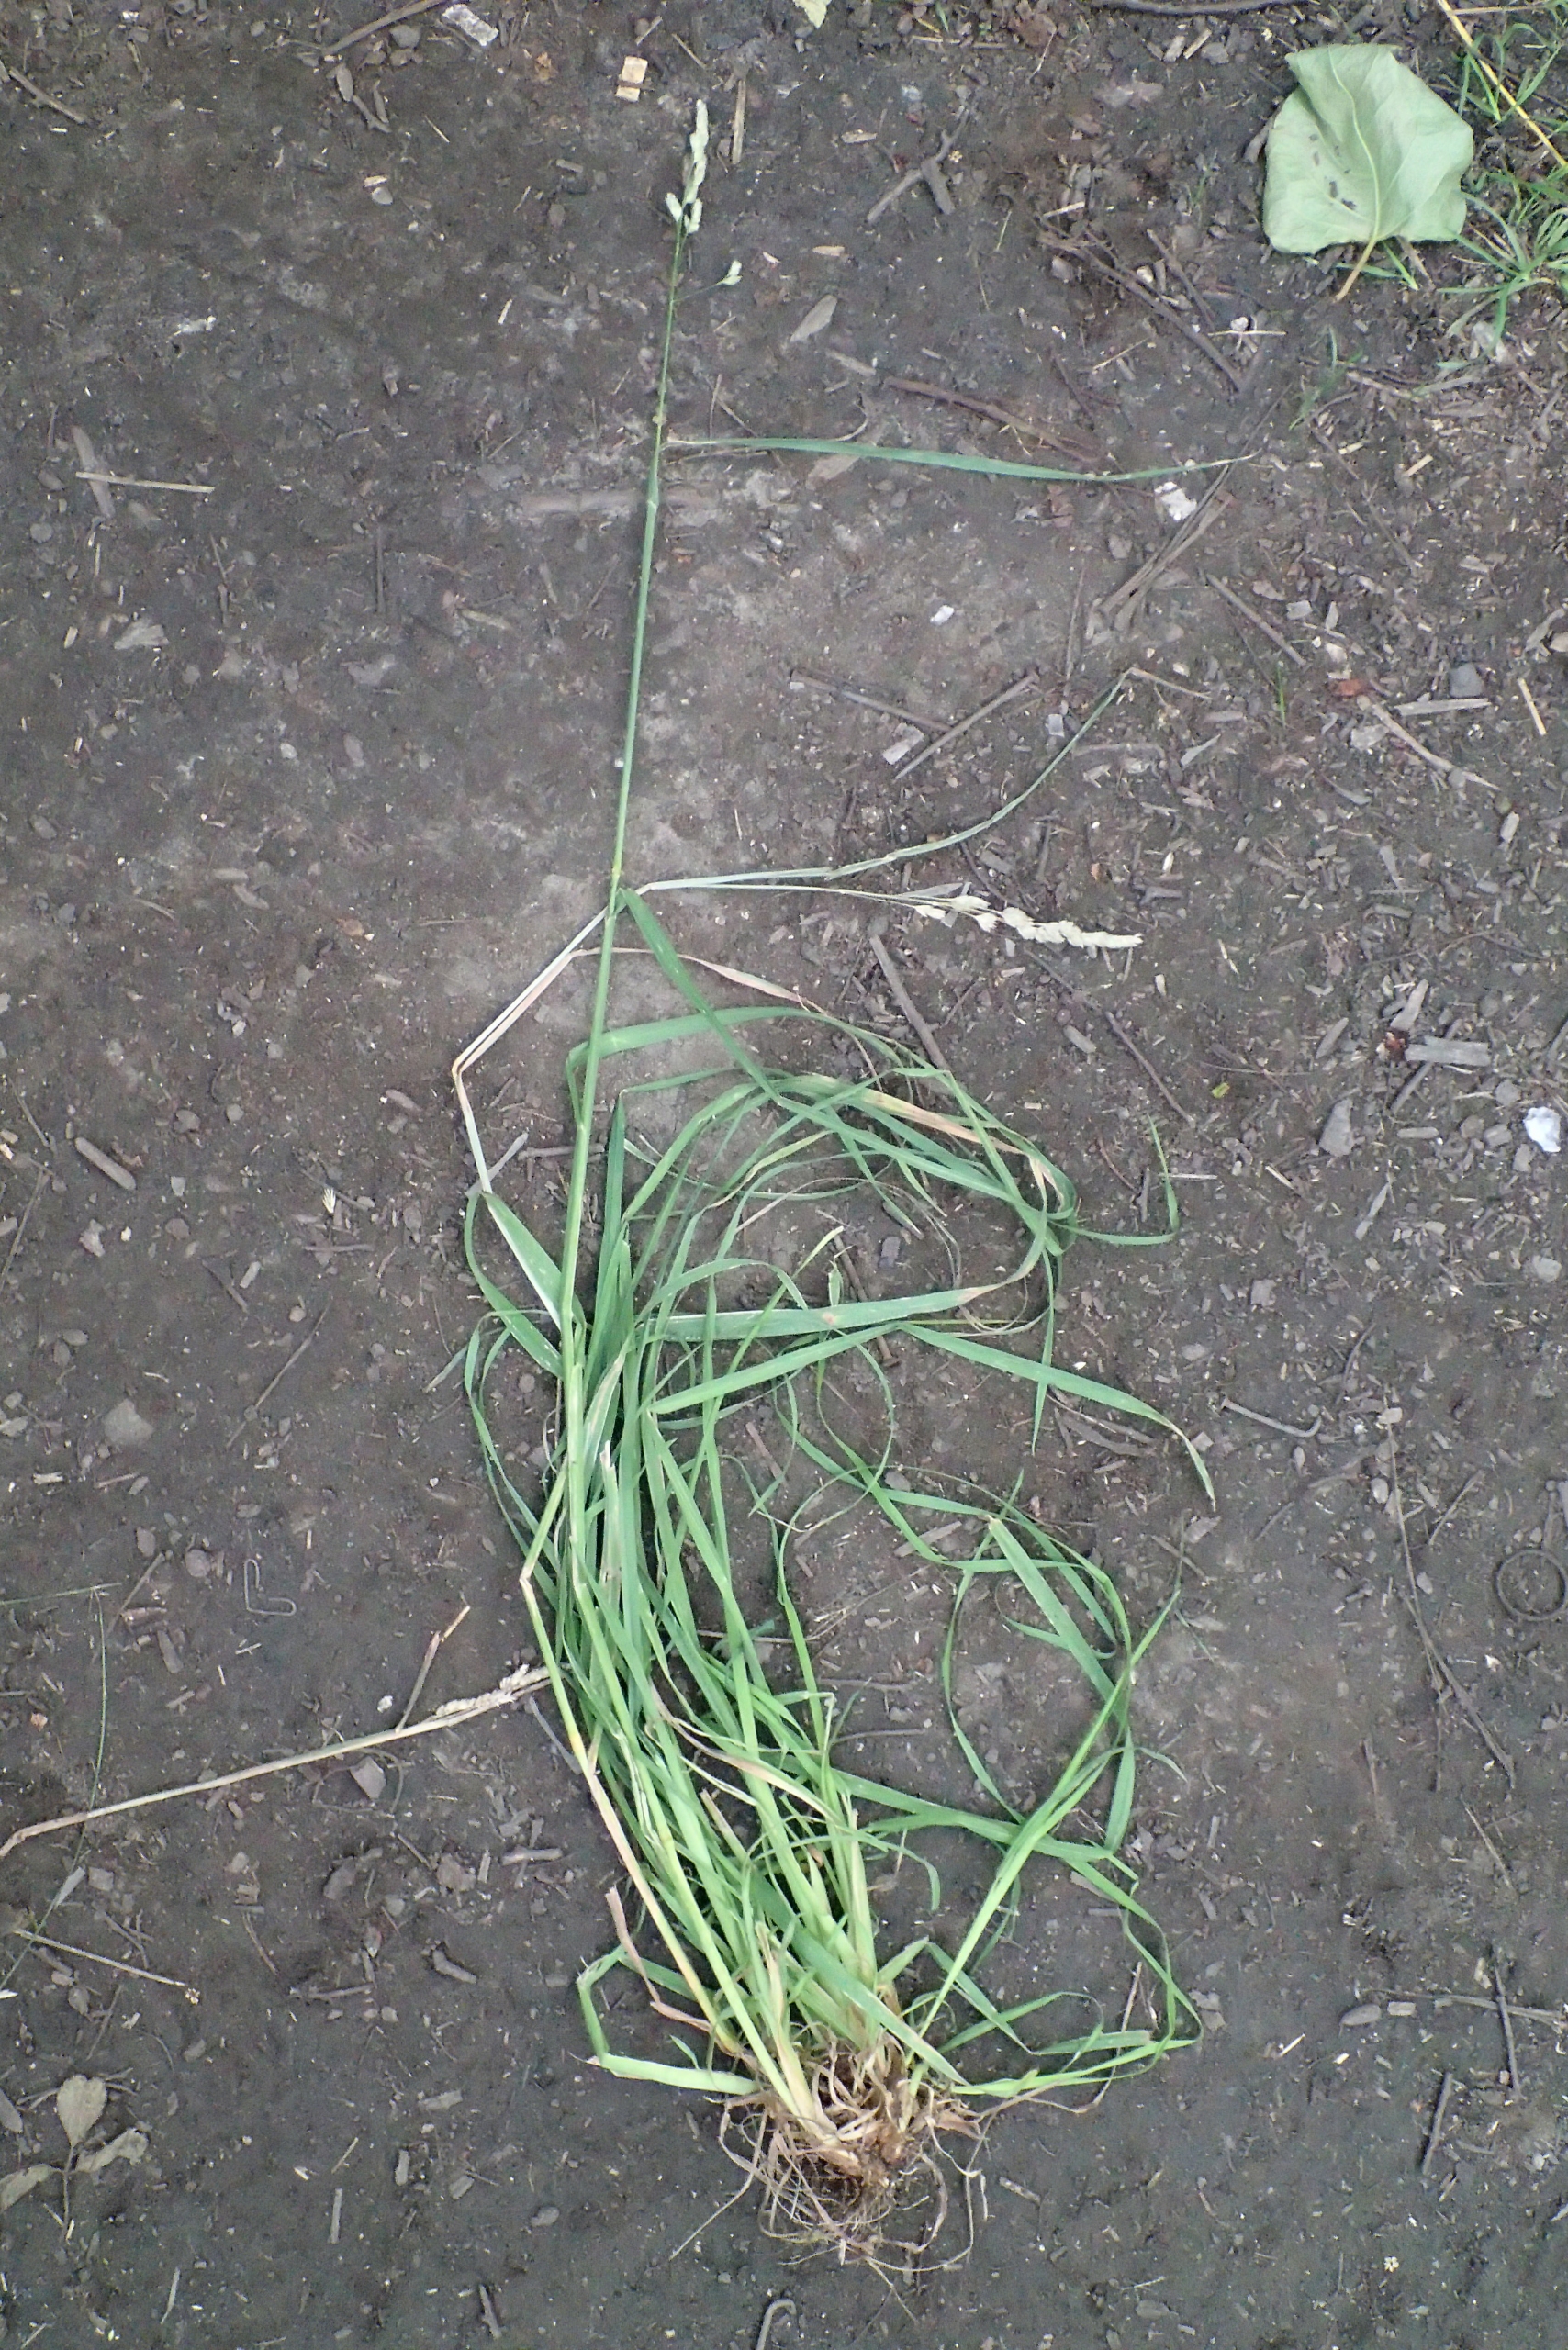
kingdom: Plantae
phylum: Tracheophyta
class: Liliopsida
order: Poales
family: Poaceae
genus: Dactylis
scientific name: Dactylis glomerata
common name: Almindelig hundegræs
